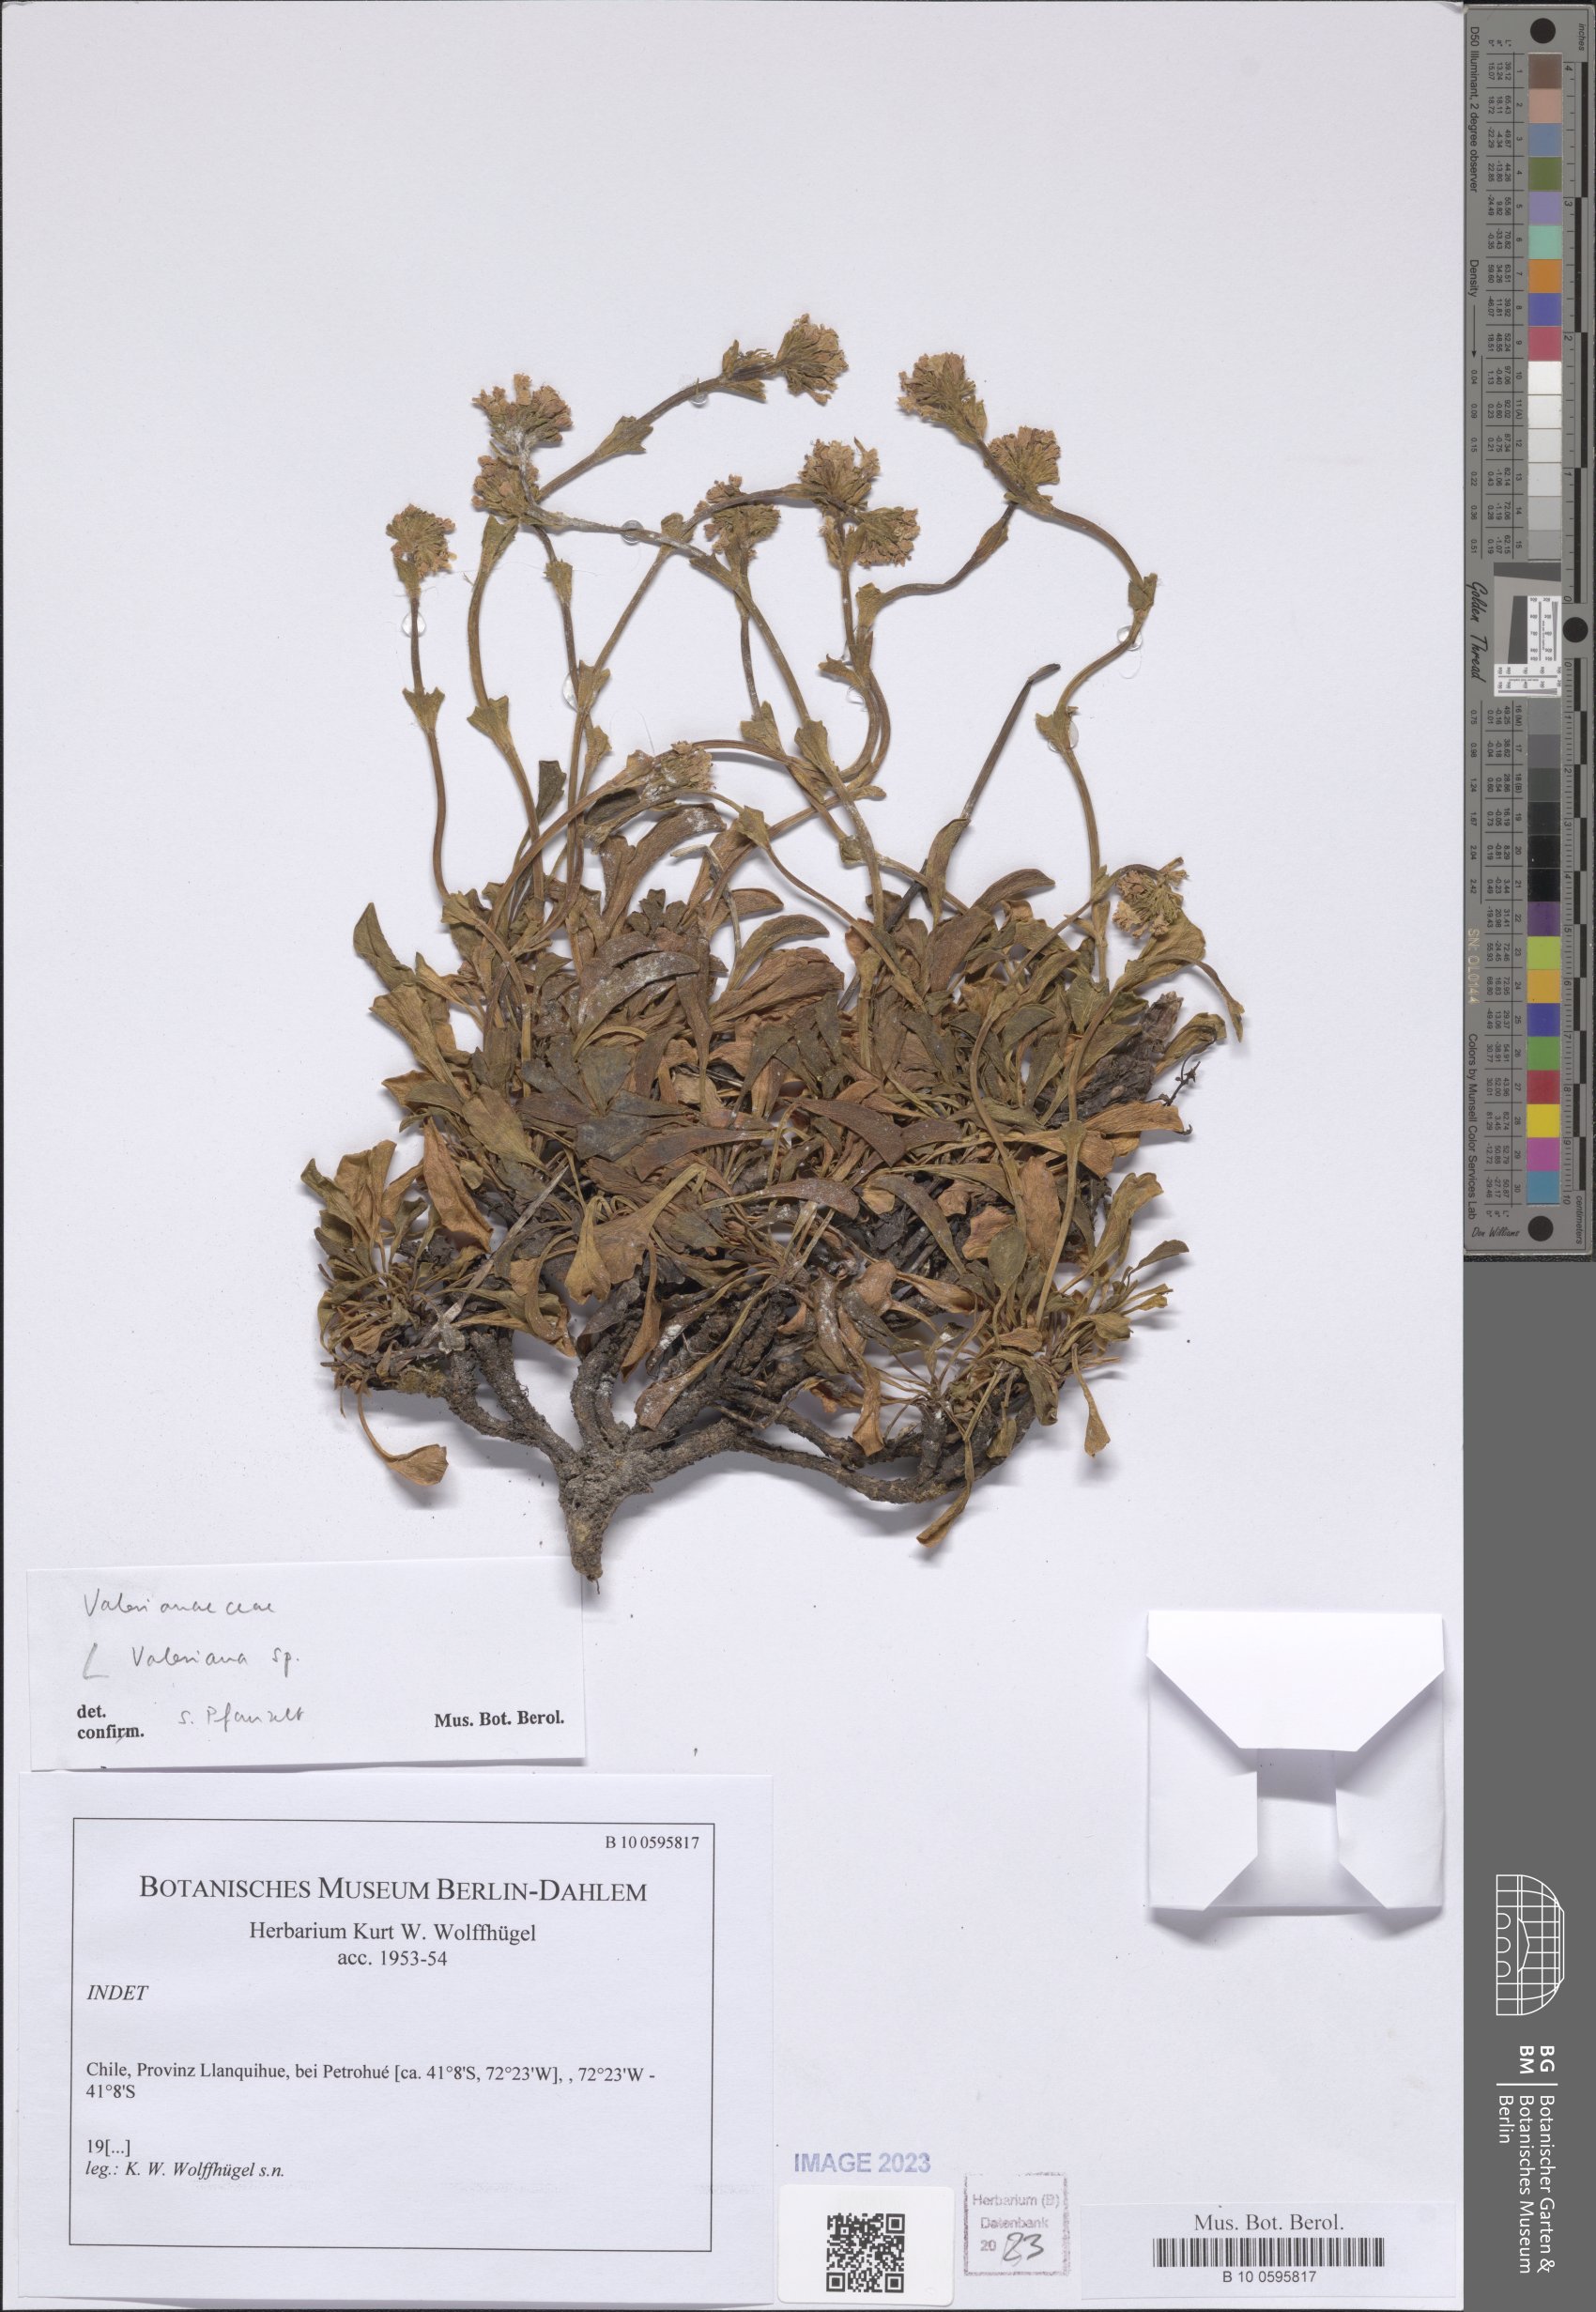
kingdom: Plantae
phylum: Tracheophyta
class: Magnoliopsida
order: Dipsacales
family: Caprifoliaceae
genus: Valeriana
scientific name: Valeriana
